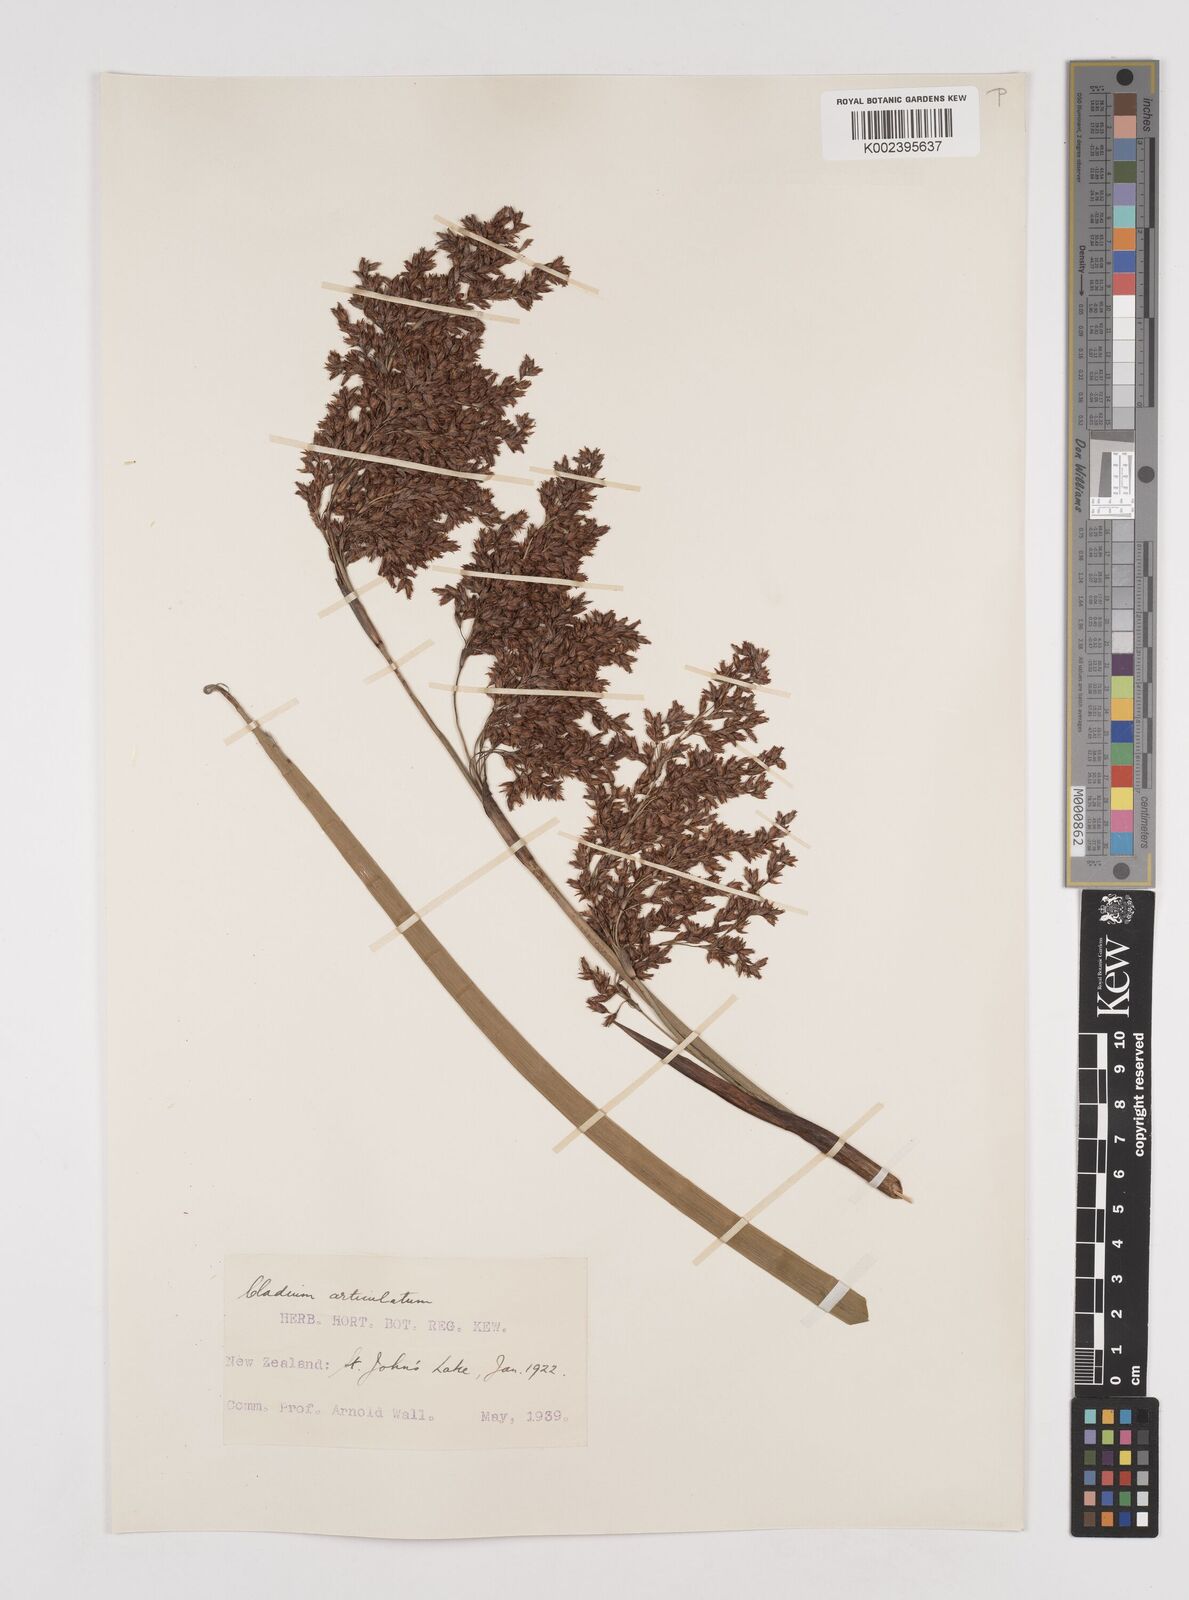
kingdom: Plantae
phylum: Tracheophyta
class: Liliopsida
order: Poales
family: Cyperaceae
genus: Machaerina
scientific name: Machaerina articulata
